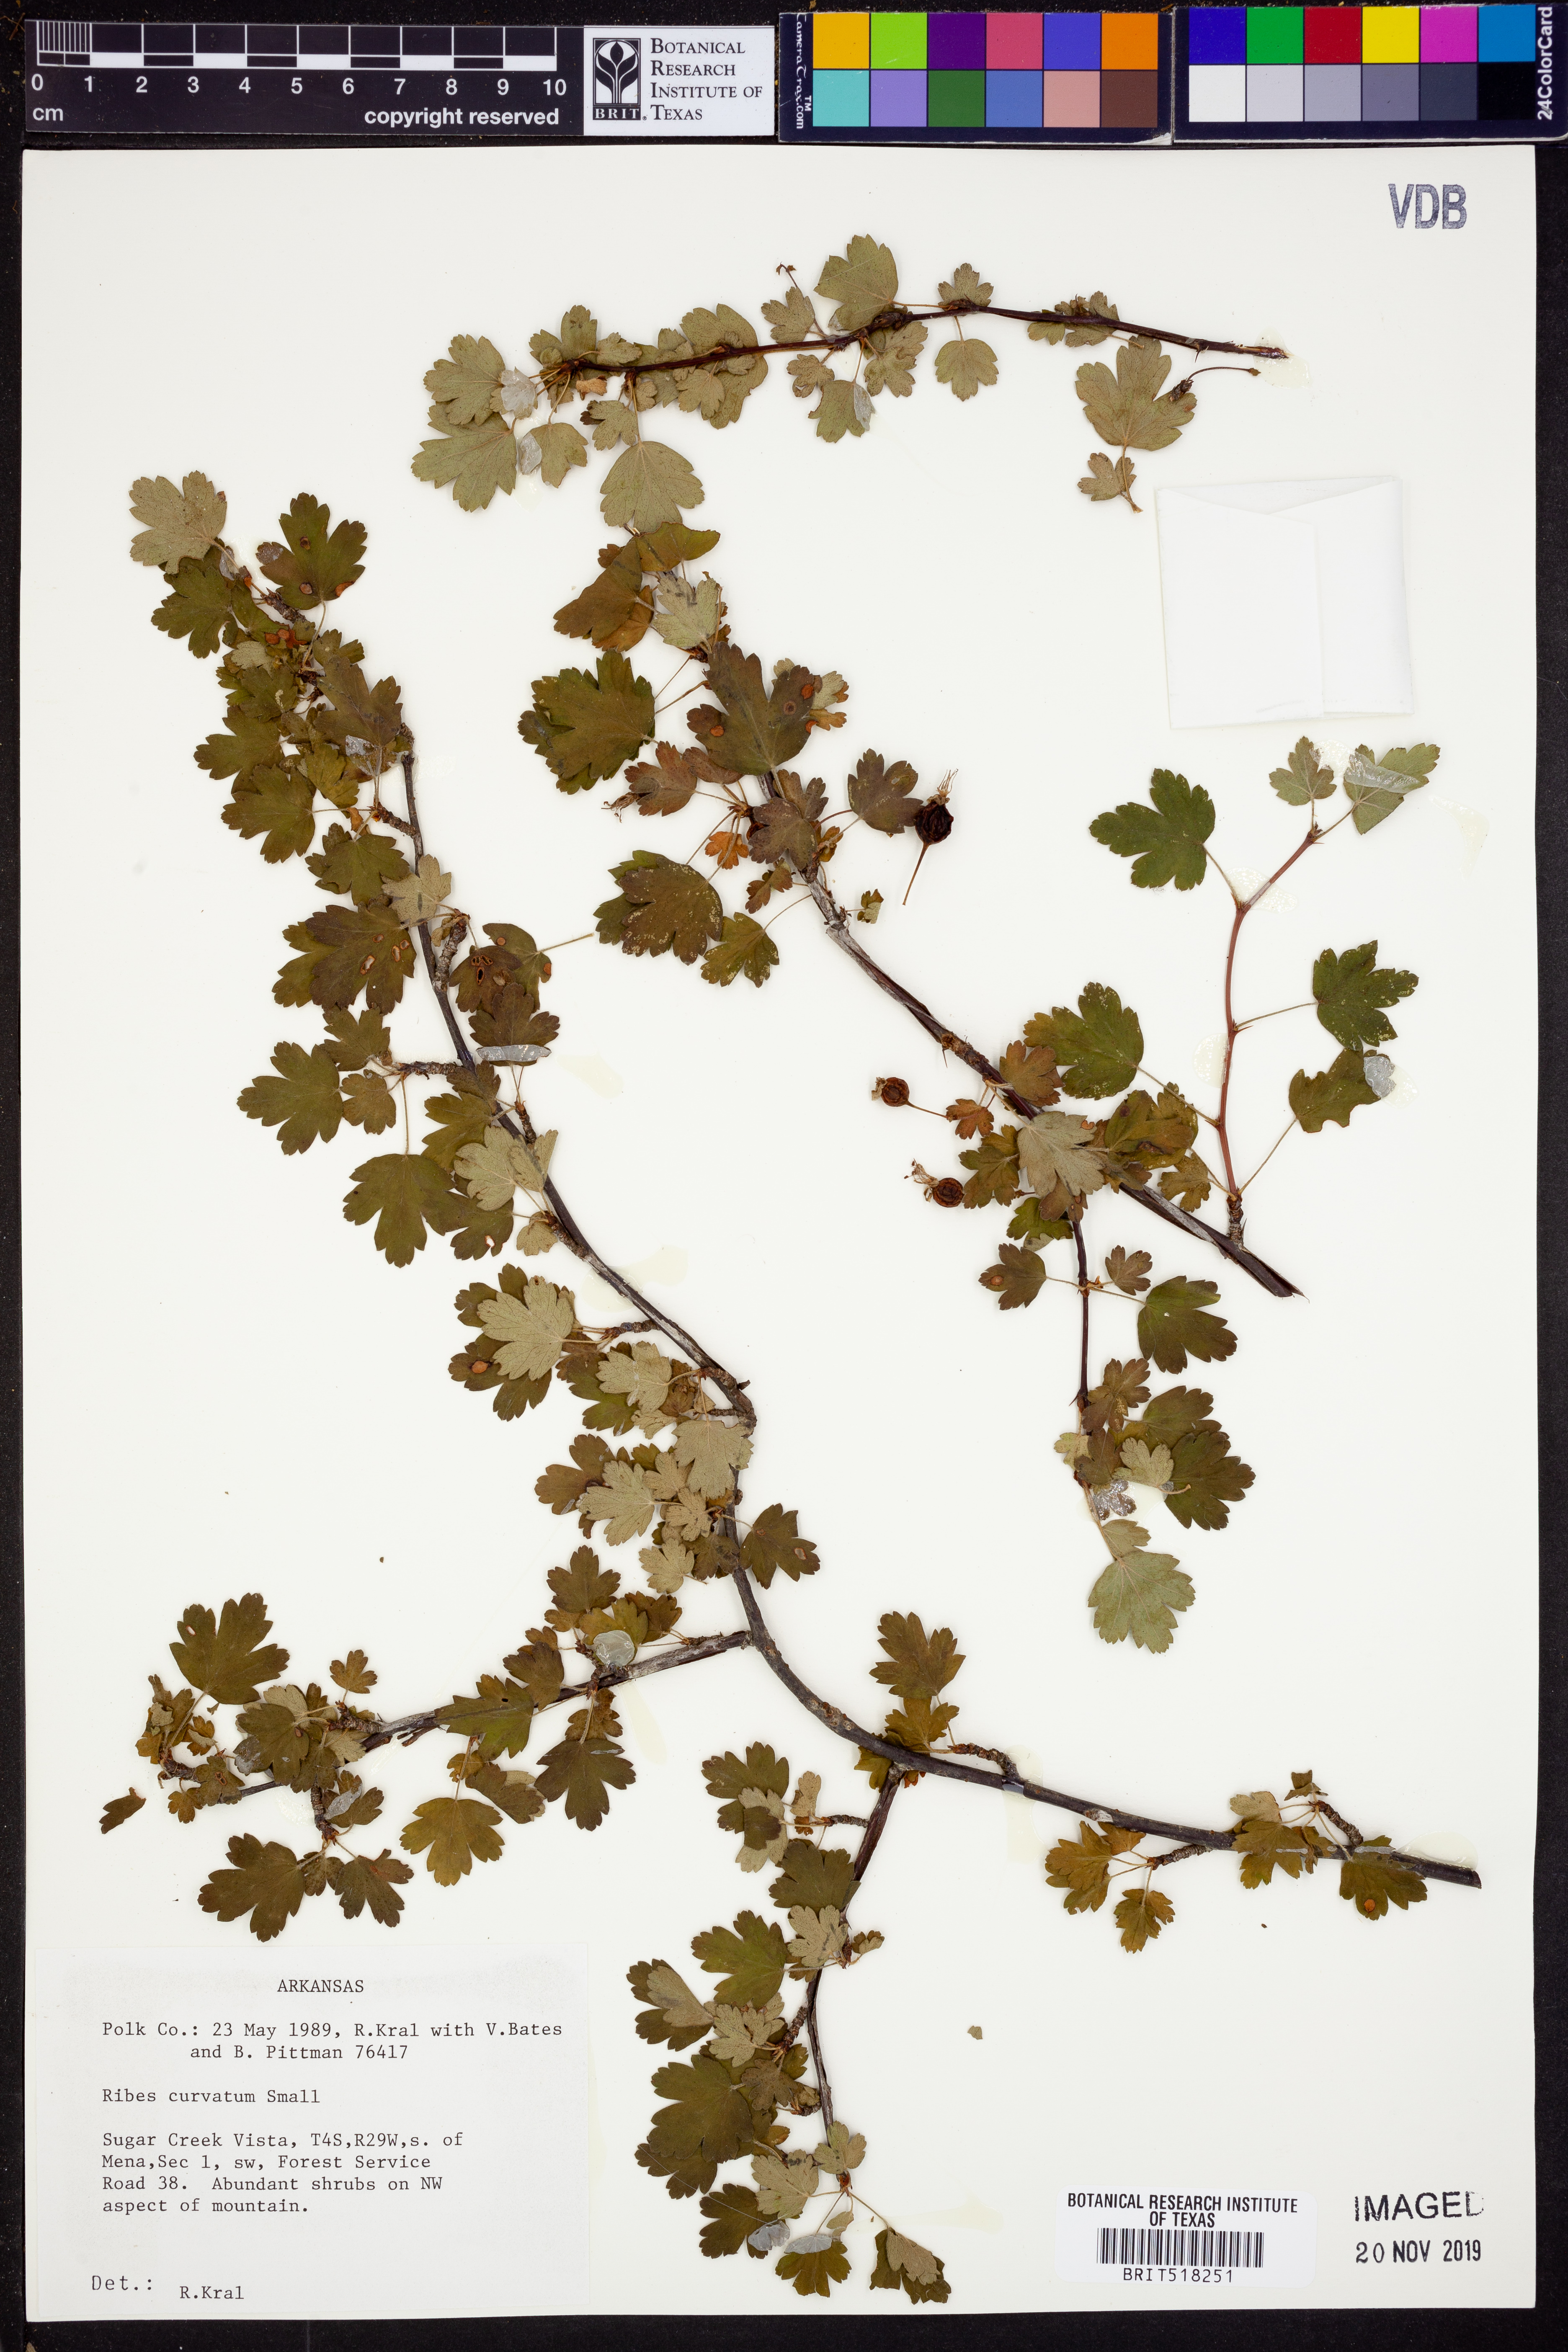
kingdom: Plantae
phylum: Tracheophyta
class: Magnoliopsida
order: Saxifragales
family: Grossulariaceae
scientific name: Grossulariaceae
